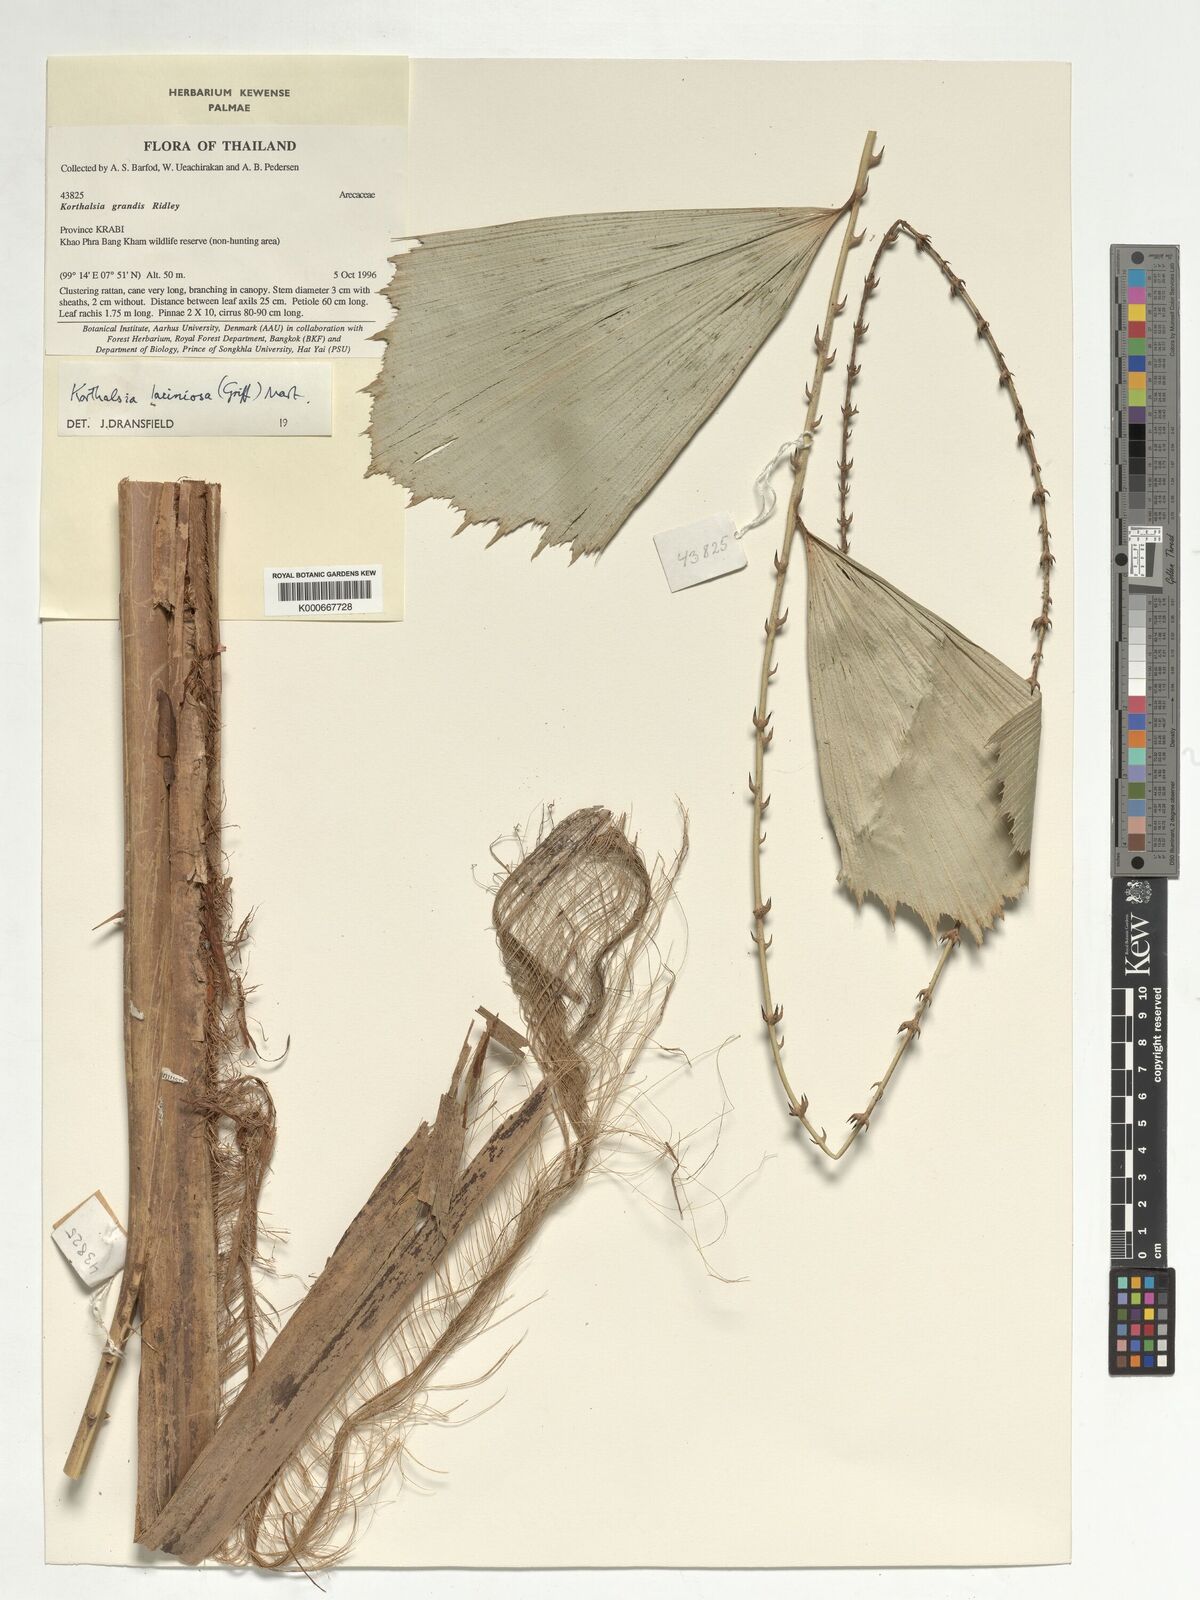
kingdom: Plantae
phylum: Tracheophyta
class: Liliopsida
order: Arecales
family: Arecaceae
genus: Korthalsia
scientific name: Korthalsia laciniosa
